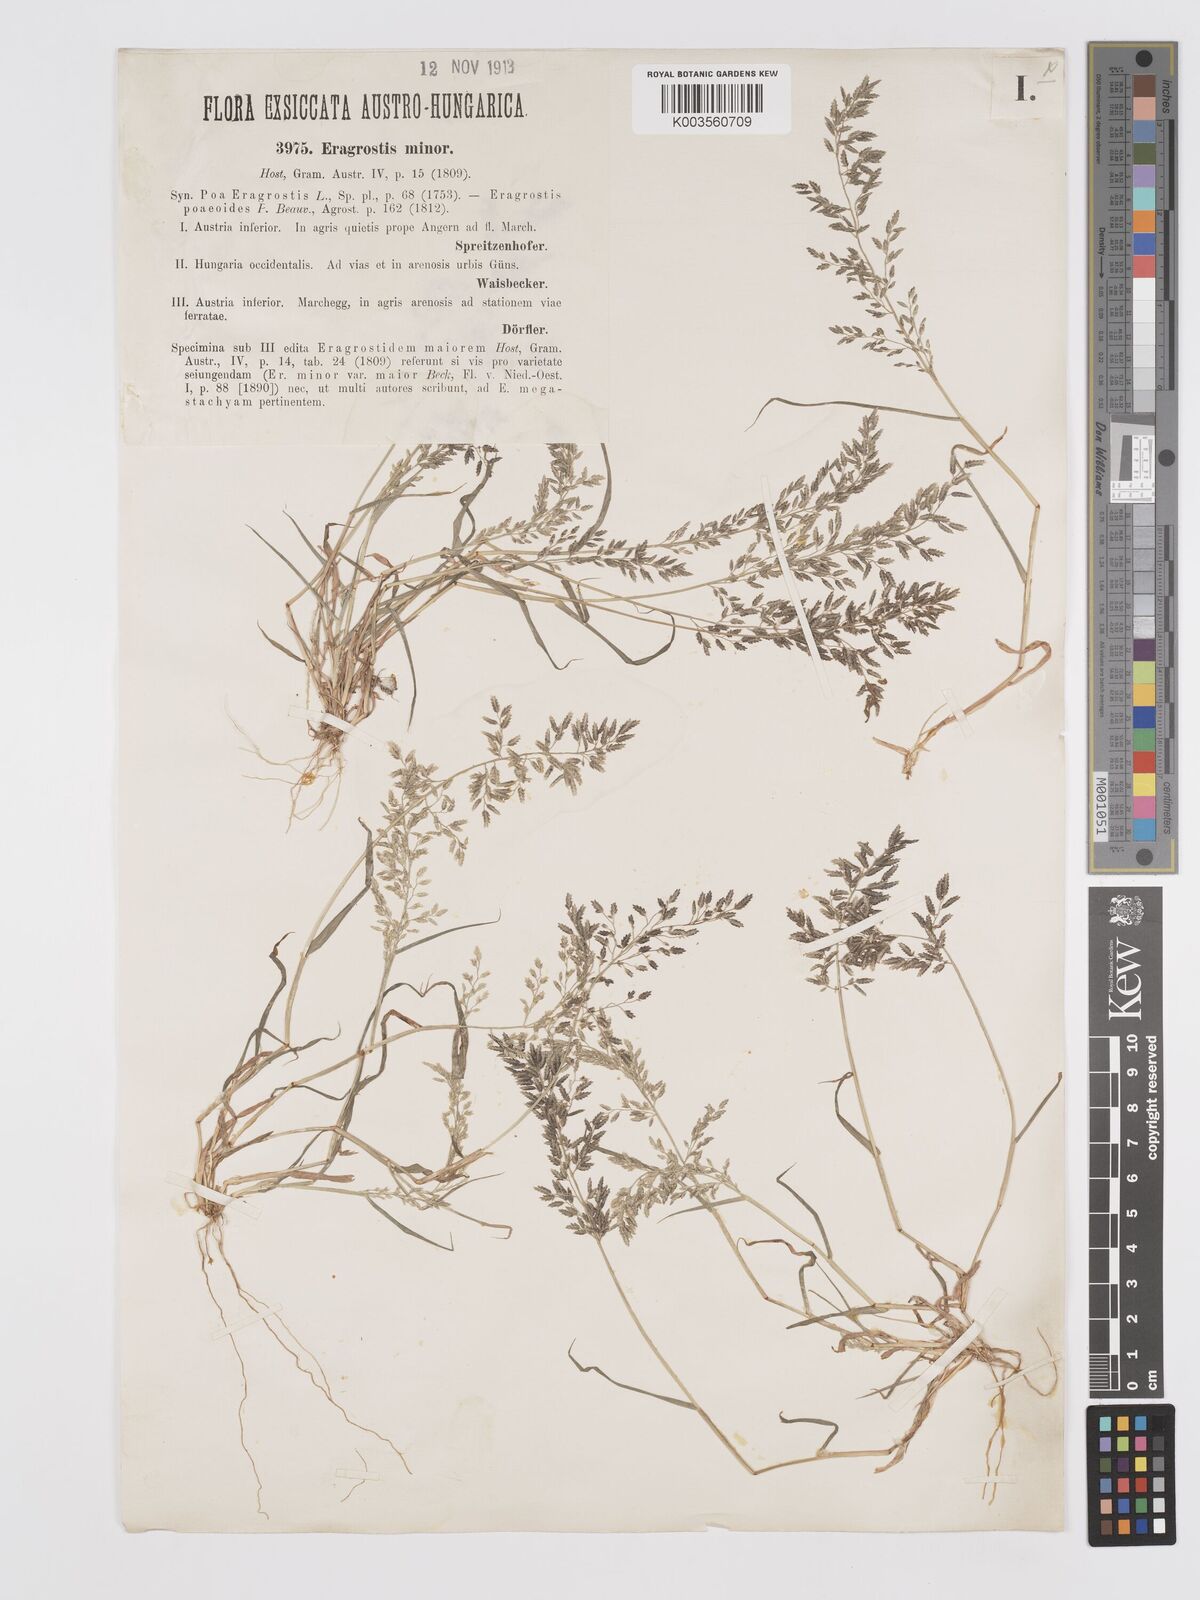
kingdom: Plantae
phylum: Tracheophyta
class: Liliopsida
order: Poales
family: Poaceae
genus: Eragrostis
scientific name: Eragrostis minor
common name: Small love-grass
